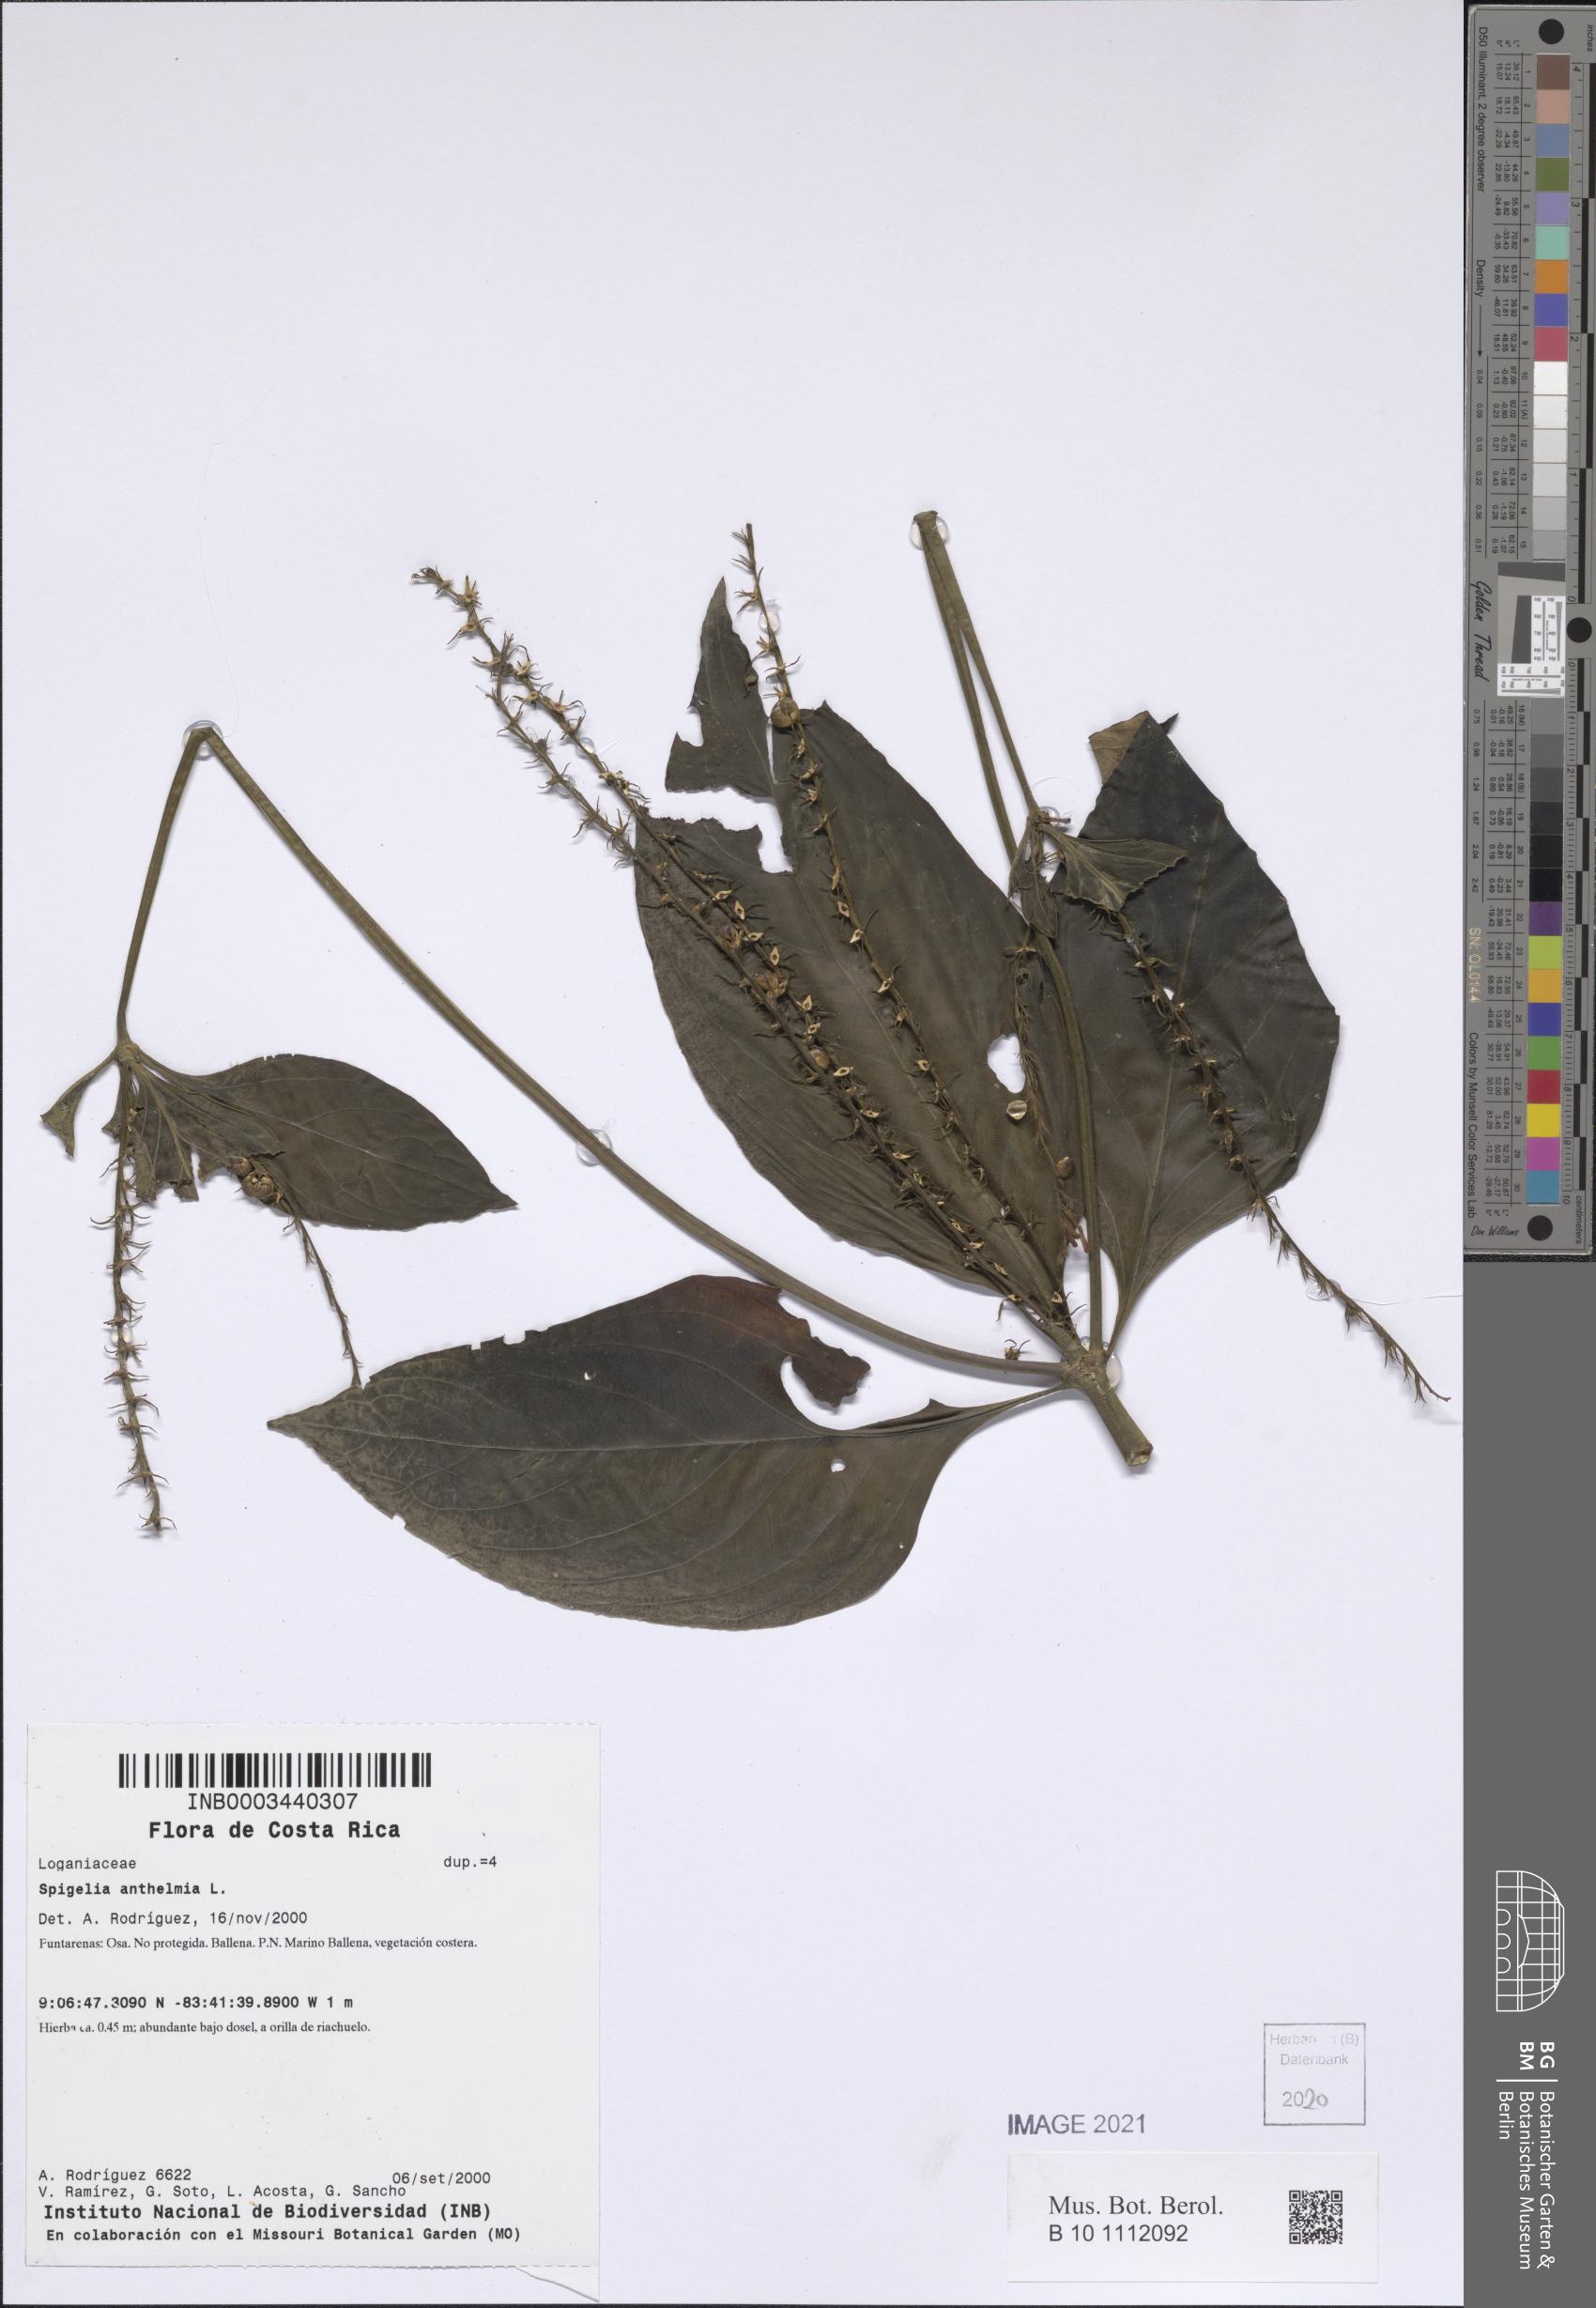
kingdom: Plantae
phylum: Tracheophyta
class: Magnoliopsida
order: Gentianales
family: Loganiaceae
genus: Spigelia
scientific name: Spigelia anthelmia
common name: West indian-pink
